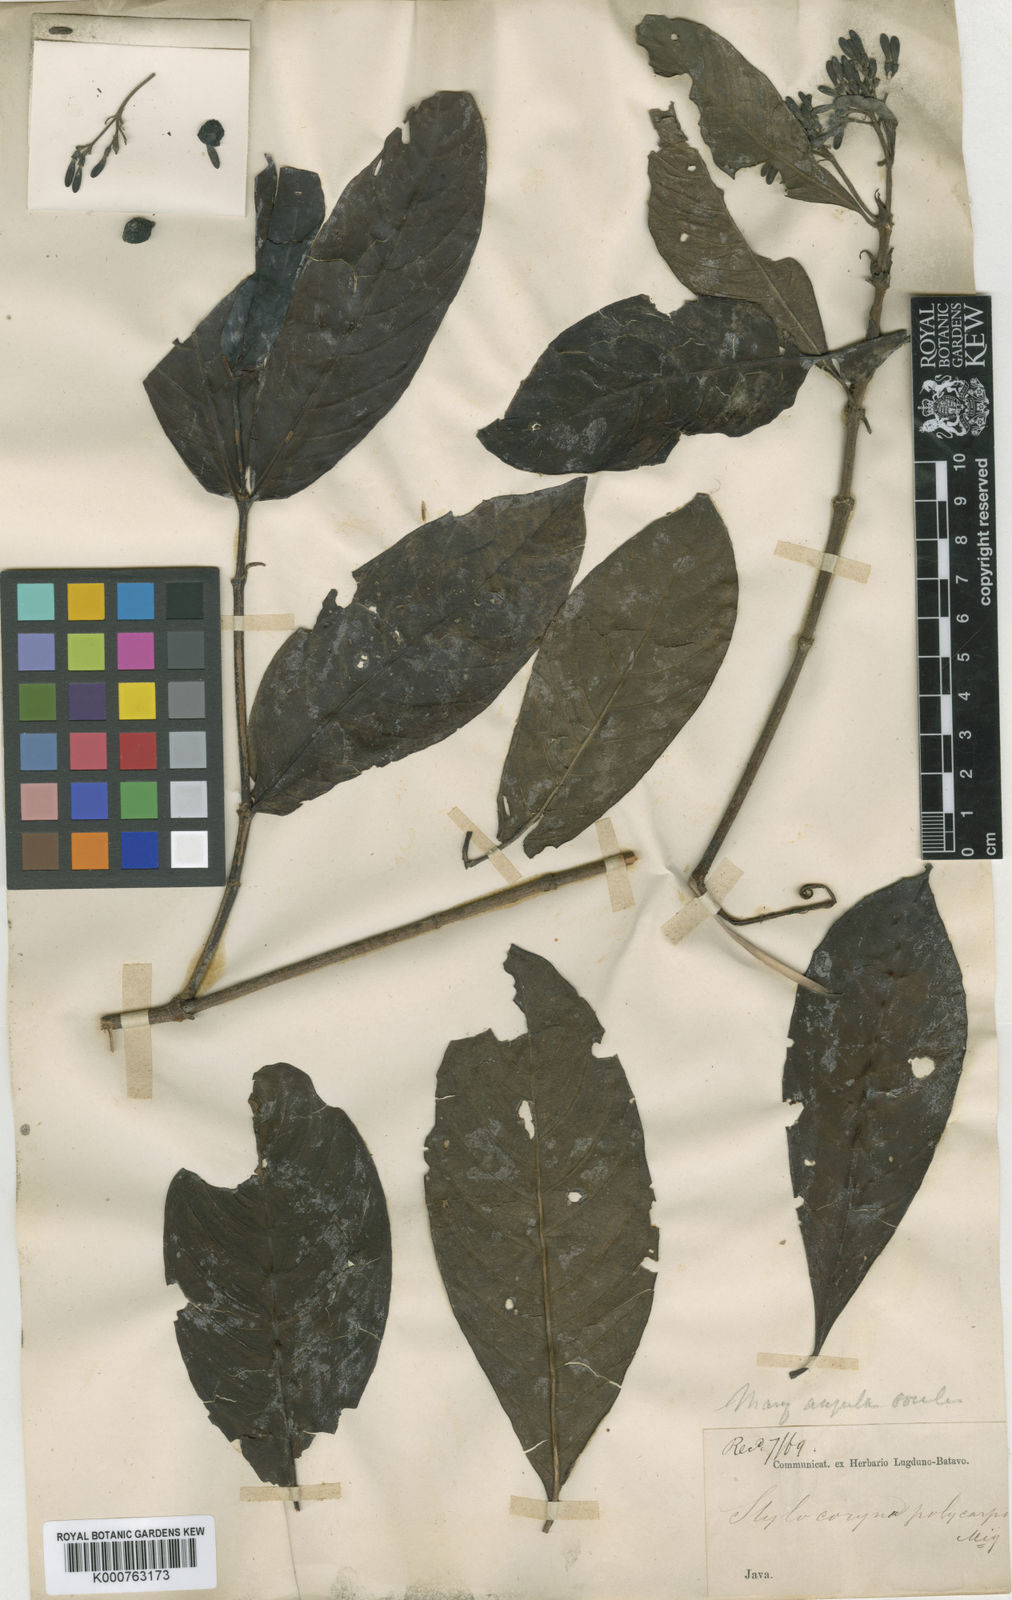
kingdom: Plantae
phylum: Tracheophyta
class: Magnoliopsida
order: Gentianales
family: Rubiaceae
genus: Tarenna
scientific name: Tarenna polycarpa
